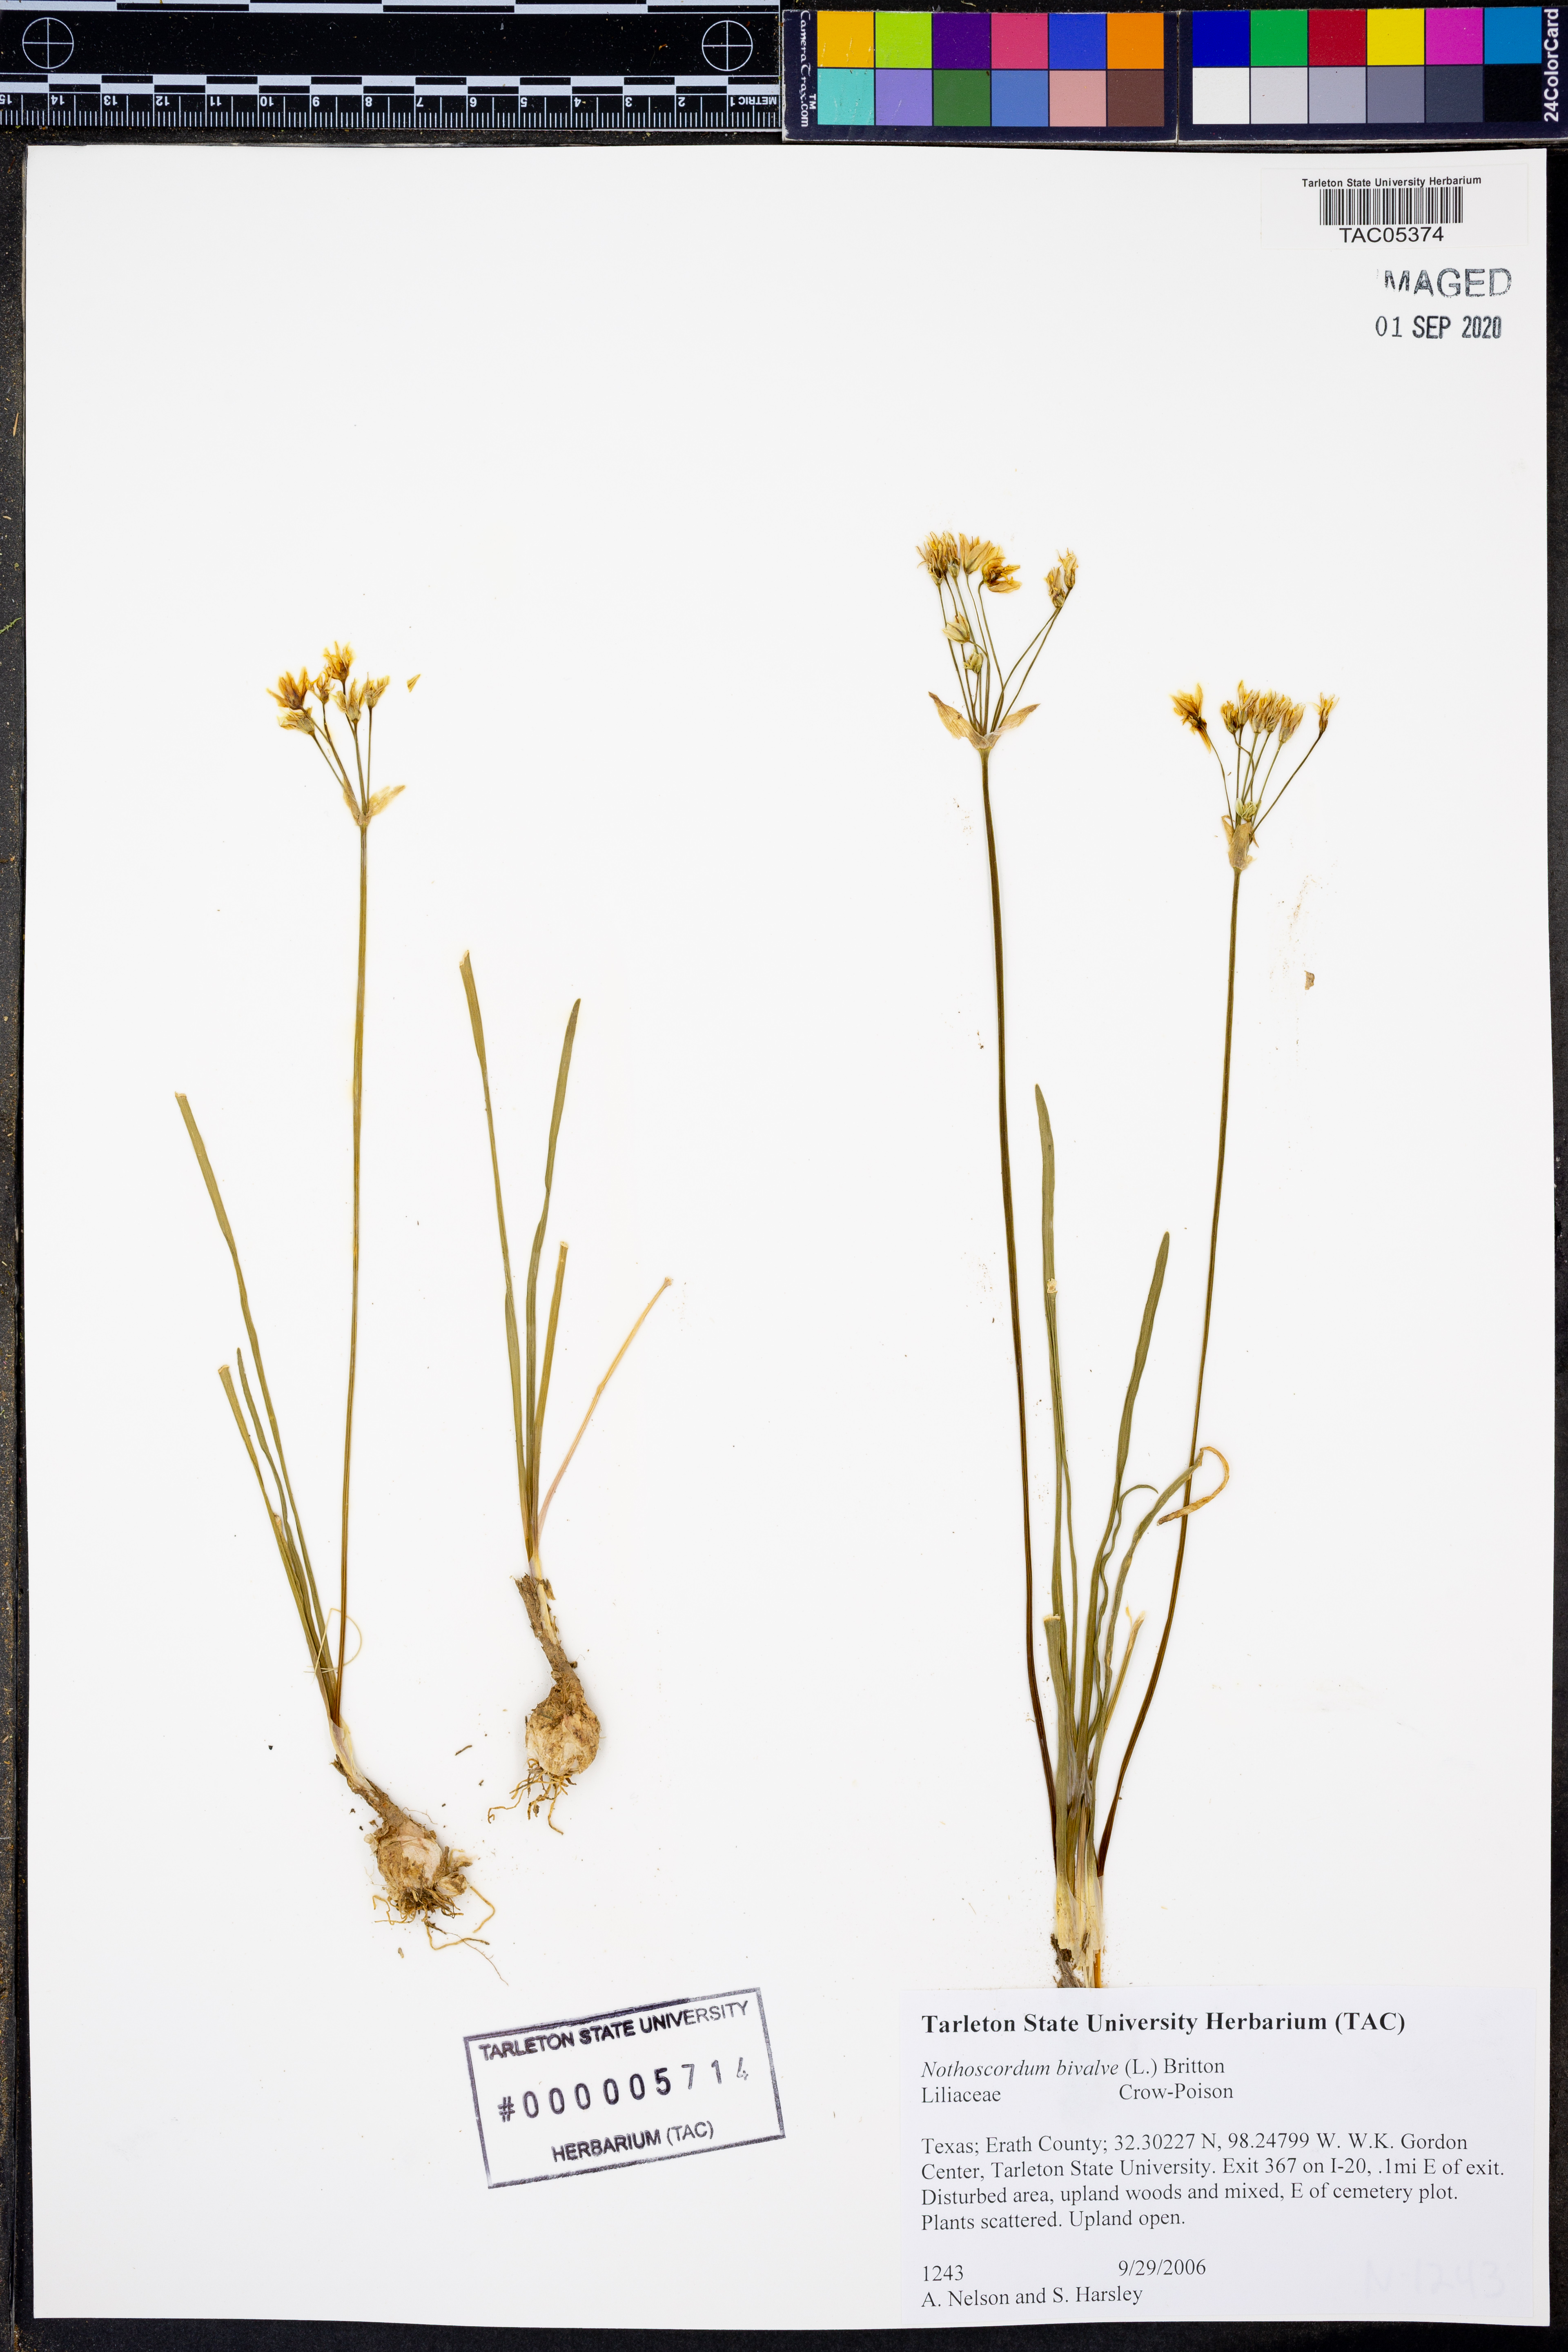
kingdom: Plantae
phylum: Tracheophyta
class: Liliopsida
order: Asparagales
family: Amaryllidaceae
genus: Nothoscordum
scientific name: Nothoscordum bivalve
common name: Crow-poison
